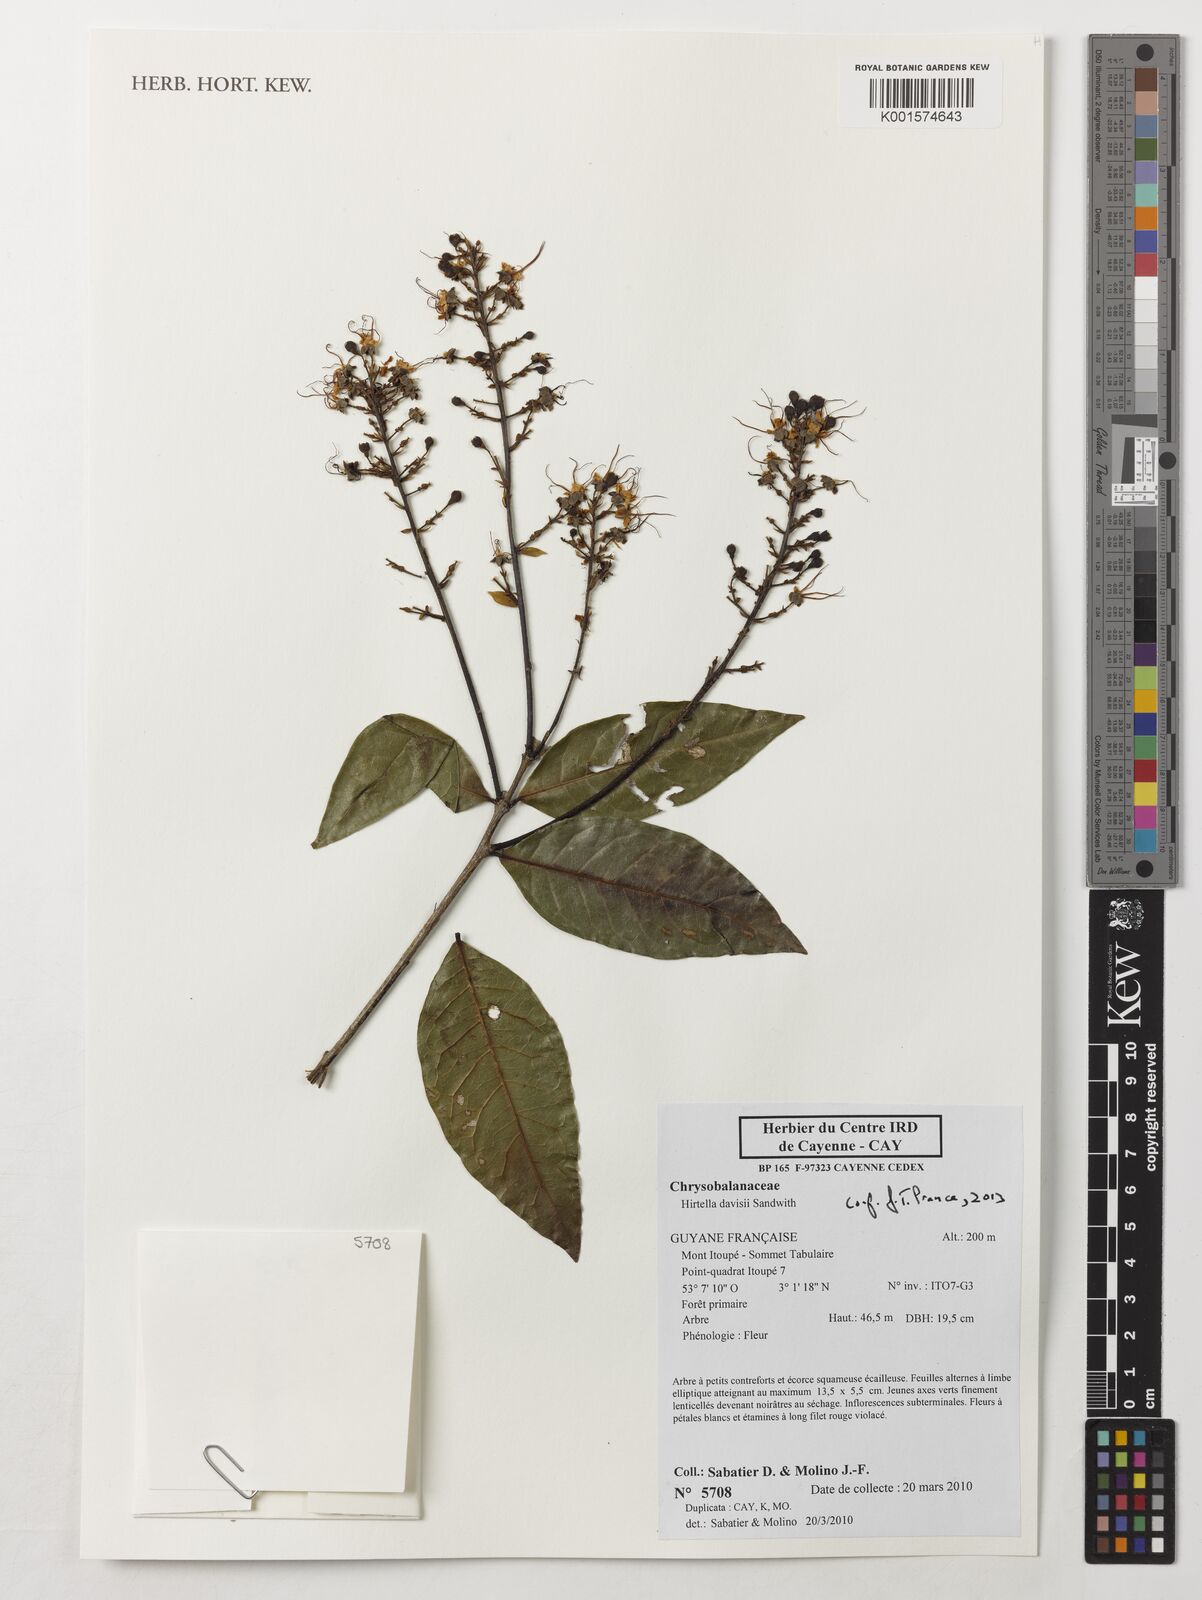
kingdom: Plantae
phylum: Tracheophyta
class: Magnoliopsida
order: Malpighiales
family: Chrysobalanaceae
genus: Hirtella
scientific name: Hirtella davisii
